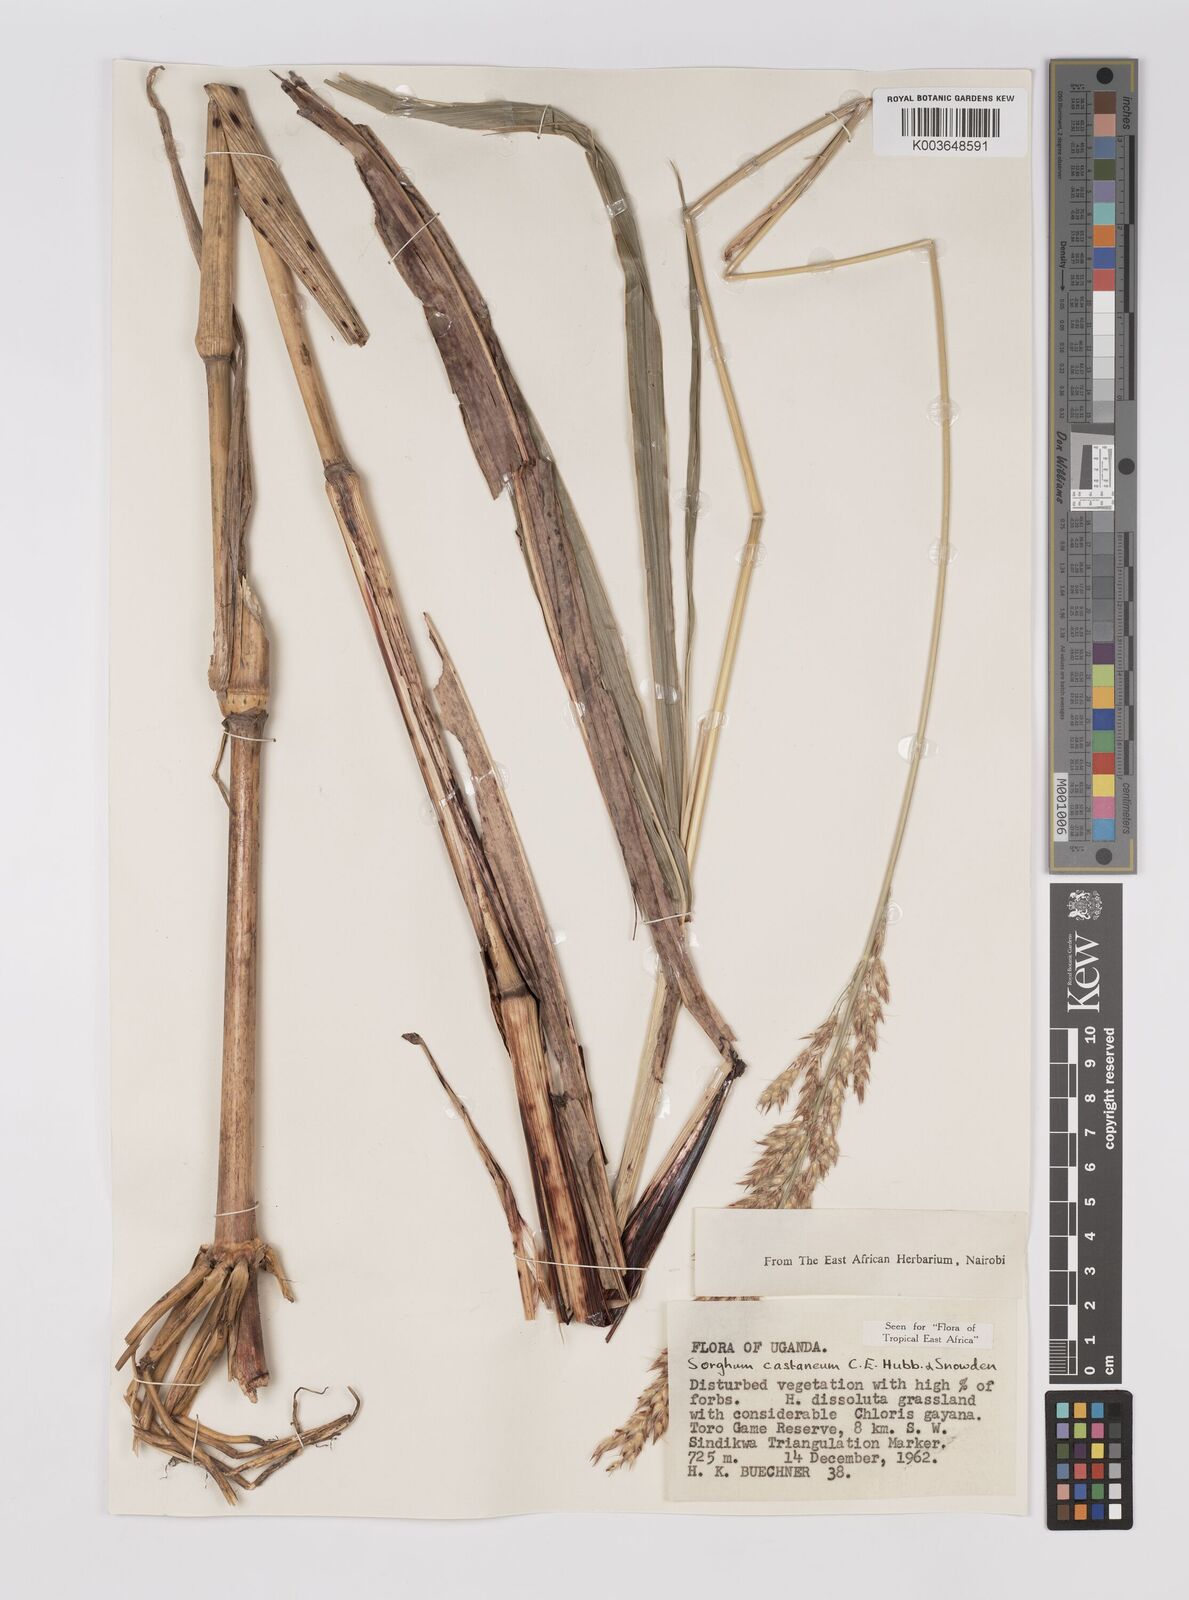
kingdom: Plantae
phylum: Tracheophyta
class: Liliopsida
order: Poales
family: Poaceae
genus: Sorghum
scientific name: Sorghum arundinaceum
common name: Sorghum
